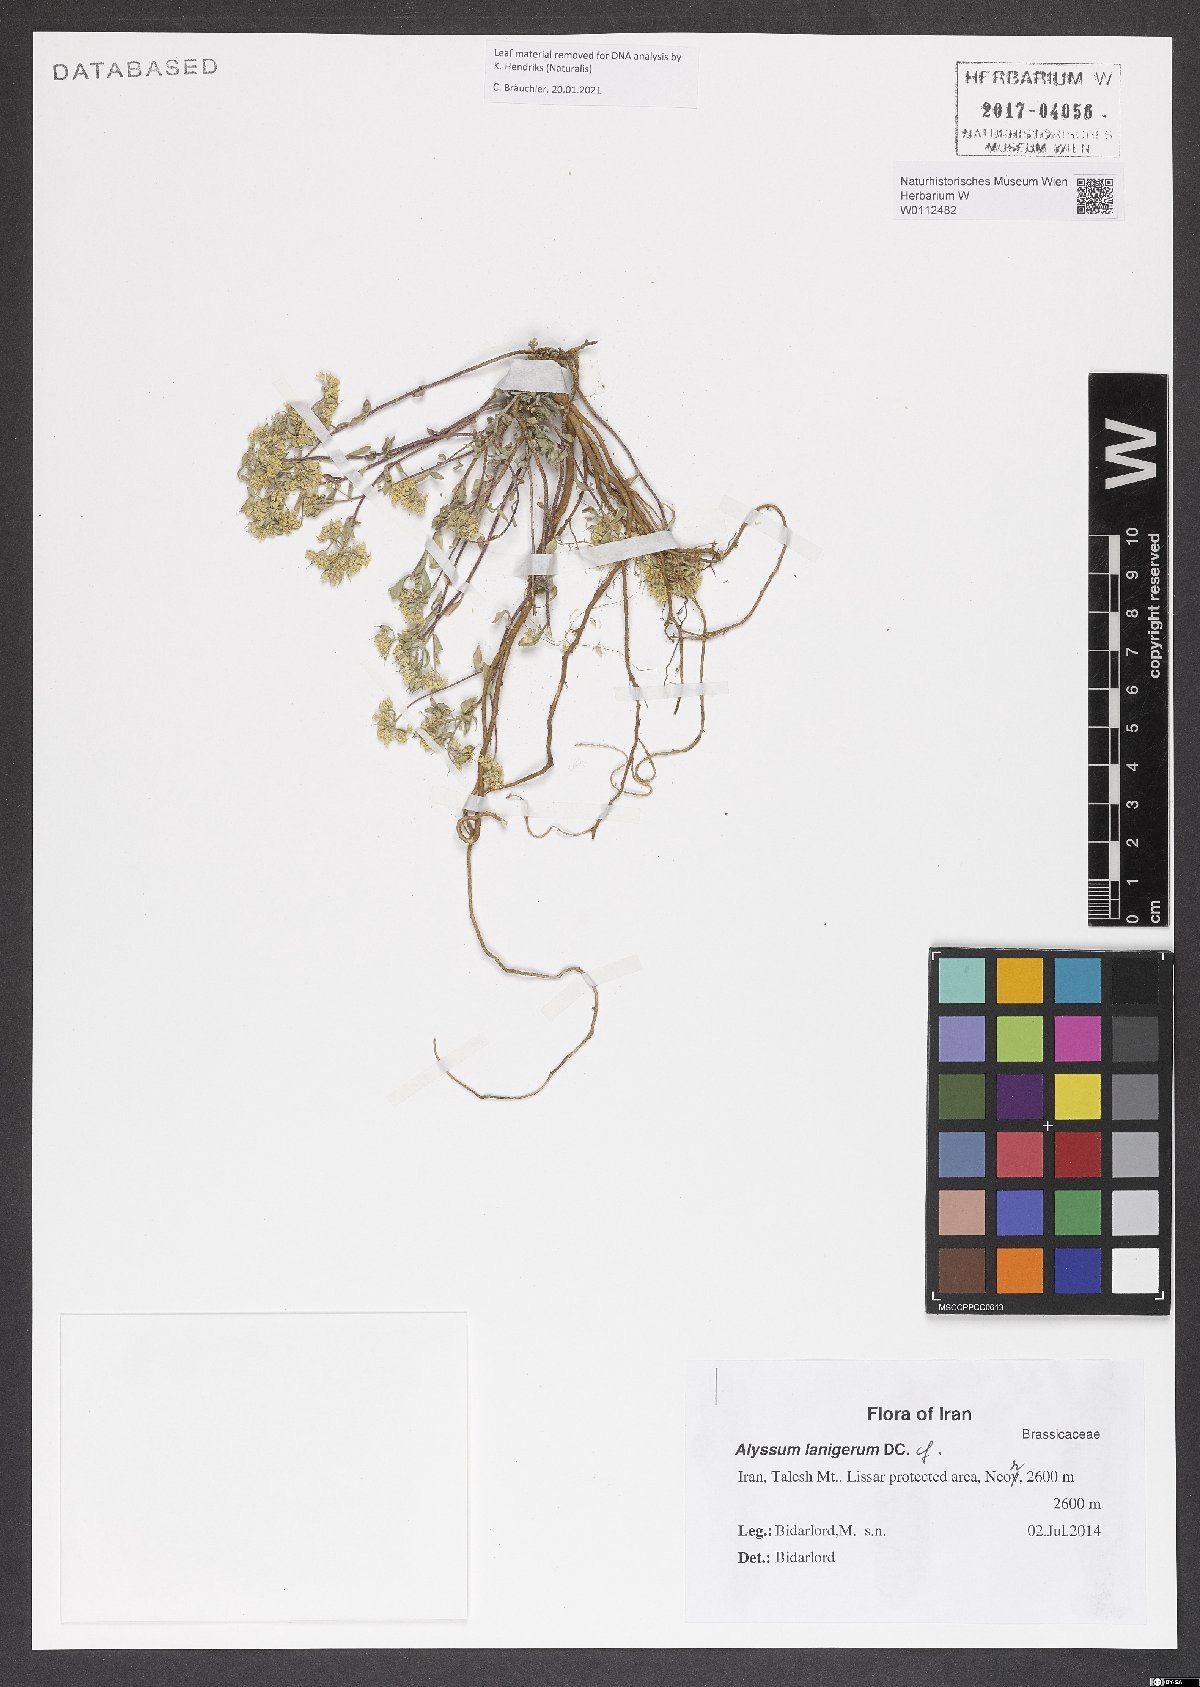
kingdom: Plantae
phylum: Tracheophyta
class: Magnoliopsida
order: Brassicales
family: Brassicaceae
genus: Odontarrhena
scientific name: Odontarrhena lanigera
